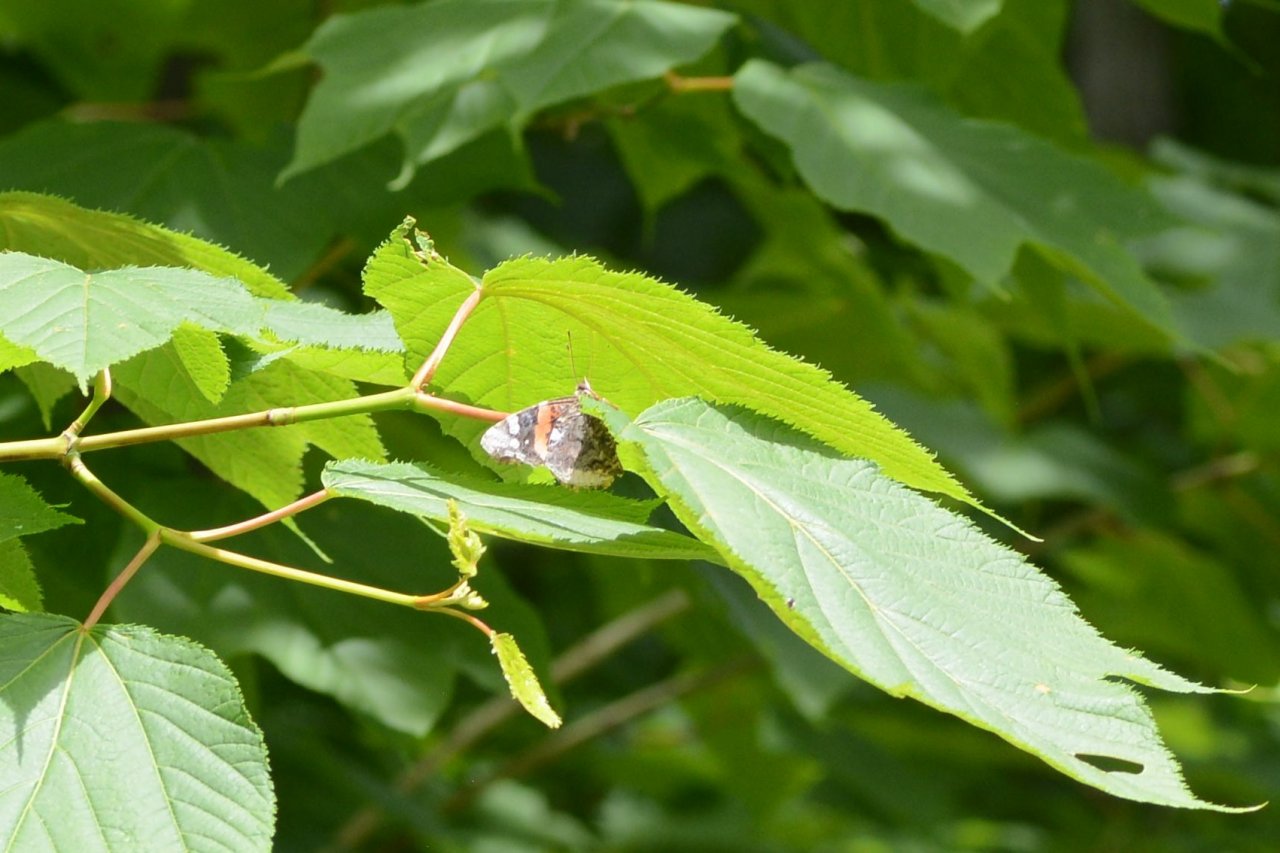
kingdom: Animalia
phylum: Arthropoda
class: Insecta
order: Lepidoptera
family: Nymphalidae
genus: Vanessa
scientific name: Vanessa atalanta
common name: Red Admiral
